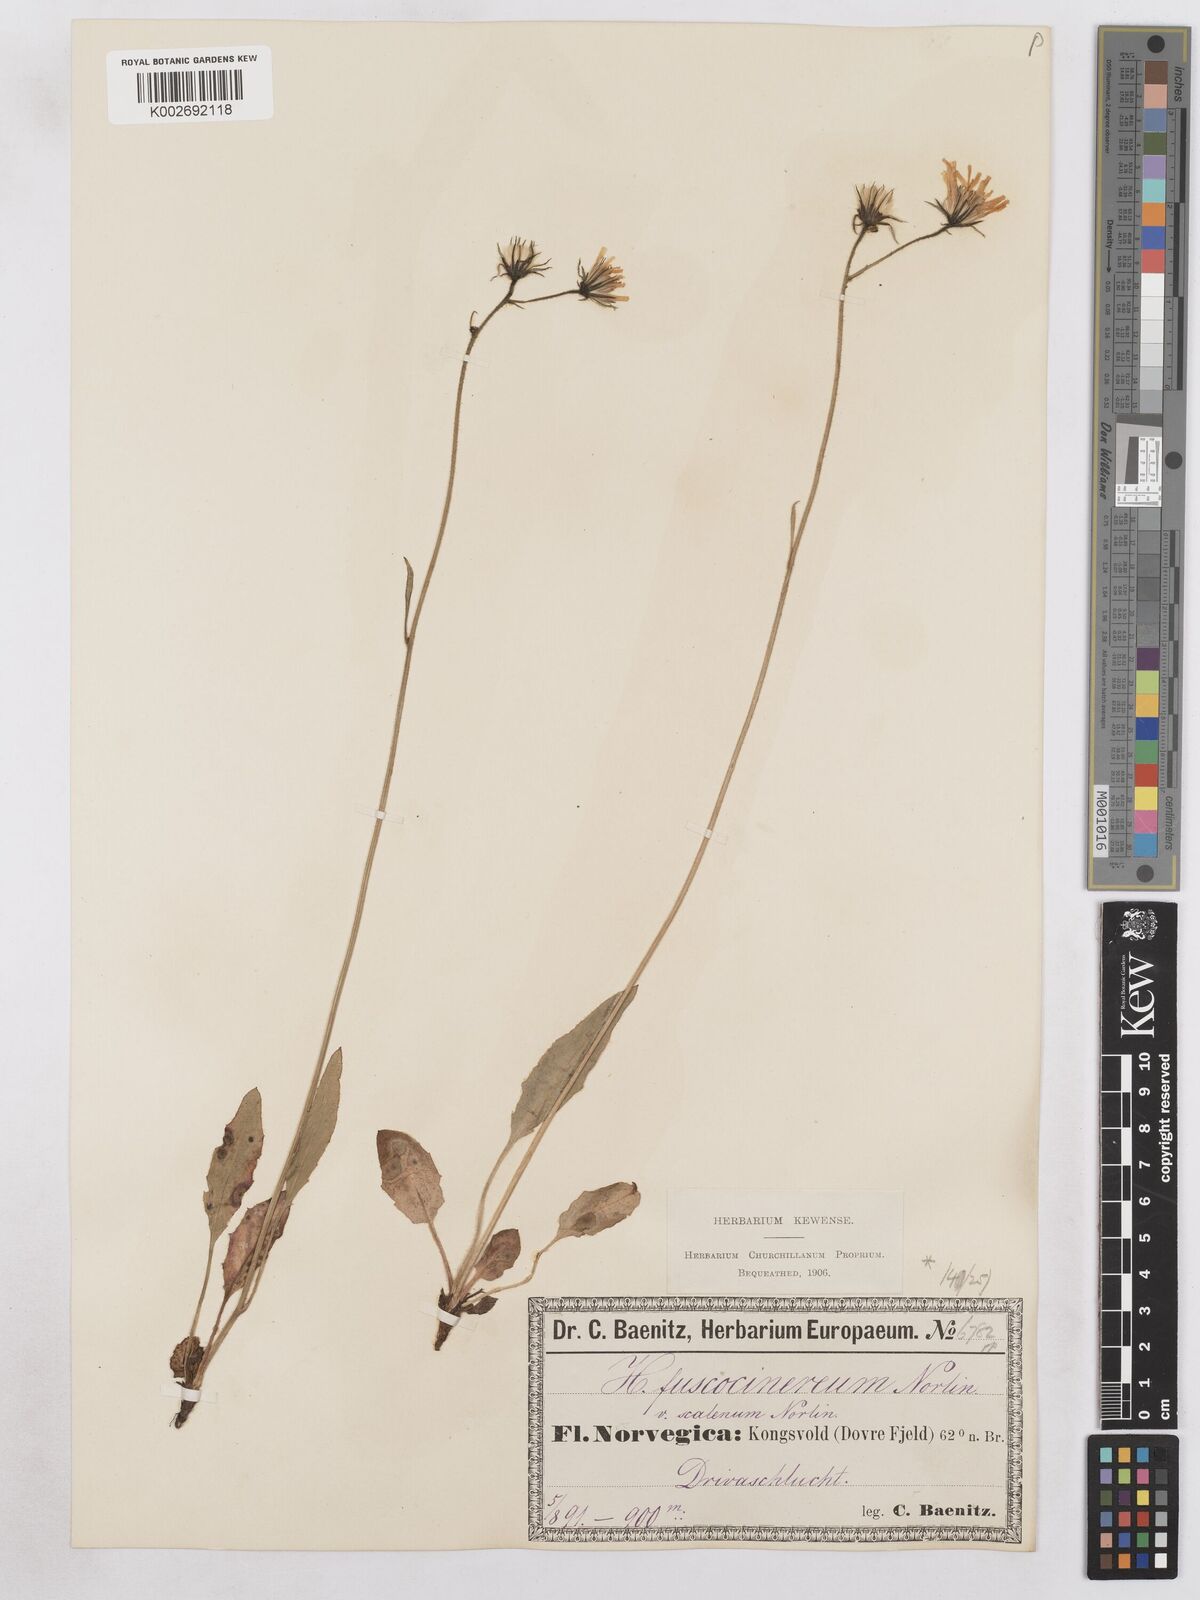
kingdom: Plantae
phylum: Tracheophyta
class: Magnoliopsida
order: Asterales
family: Asteraceae
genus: Hieracium
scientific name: Hieracium fuscocinereum
